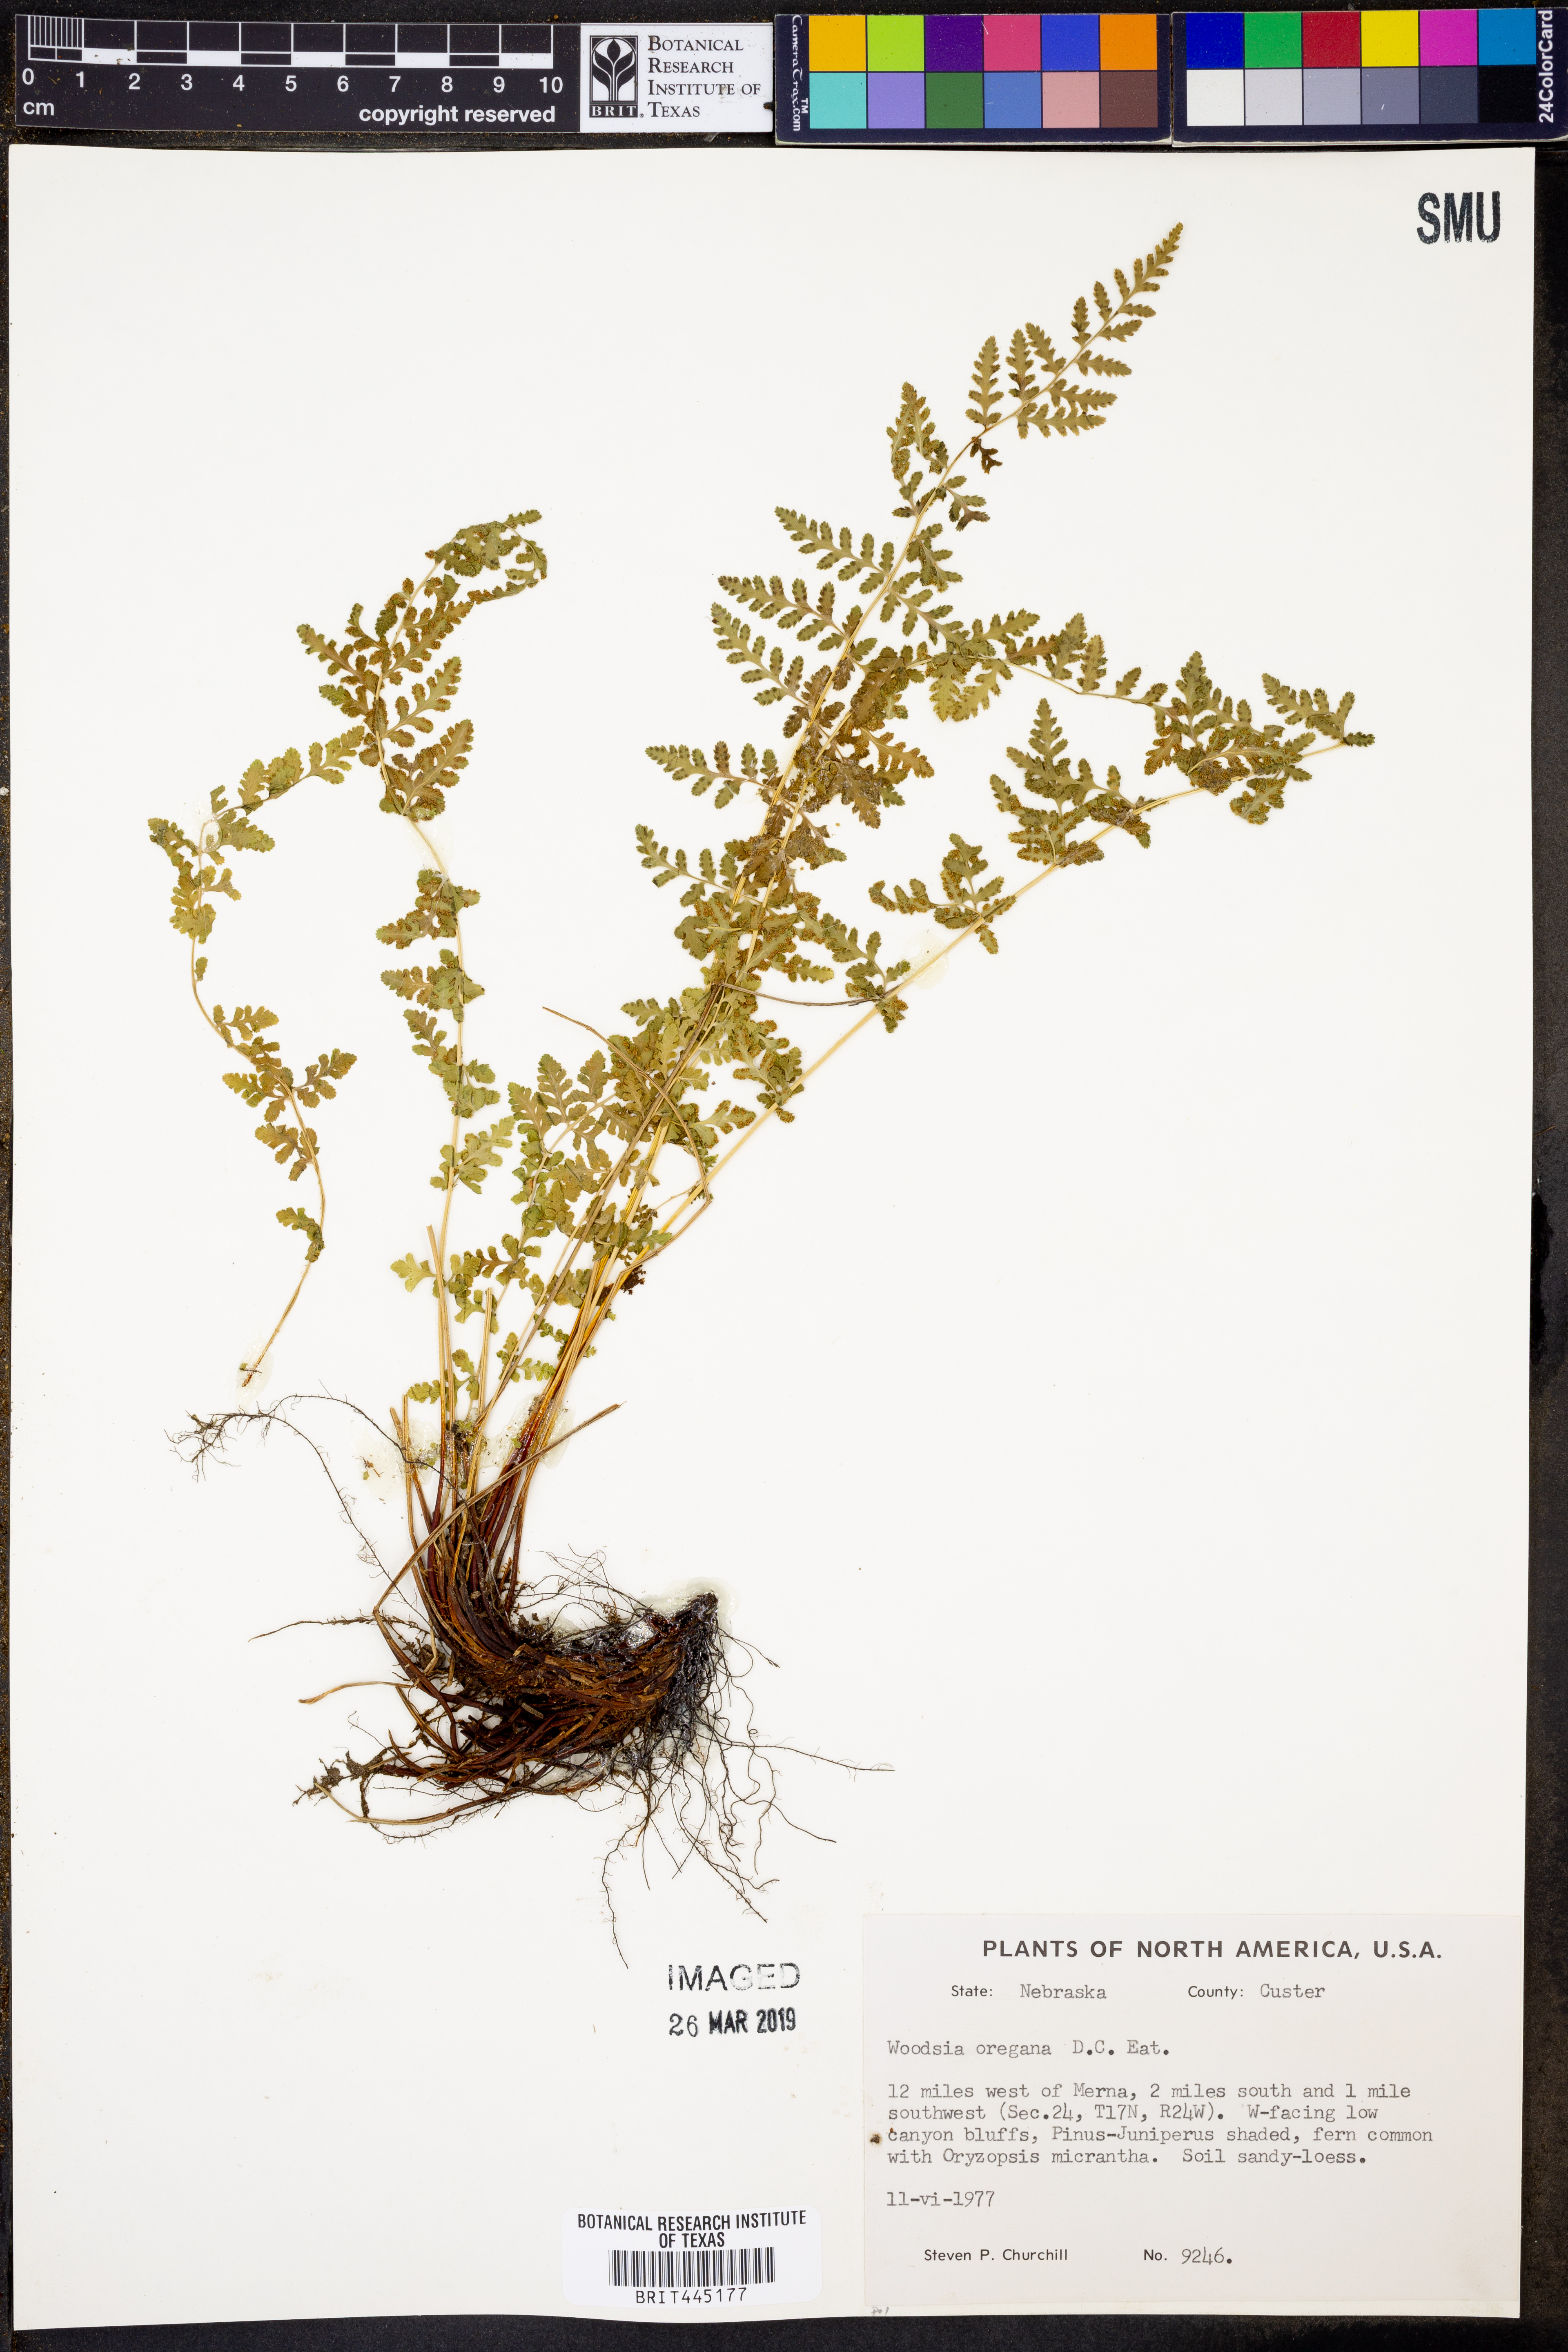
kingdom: Plantae
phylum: Tracheophyta
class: Polypodiopsida
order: Polypodiales
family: Woodsiaceae
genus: Physematium
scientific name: Physematium oreganum
